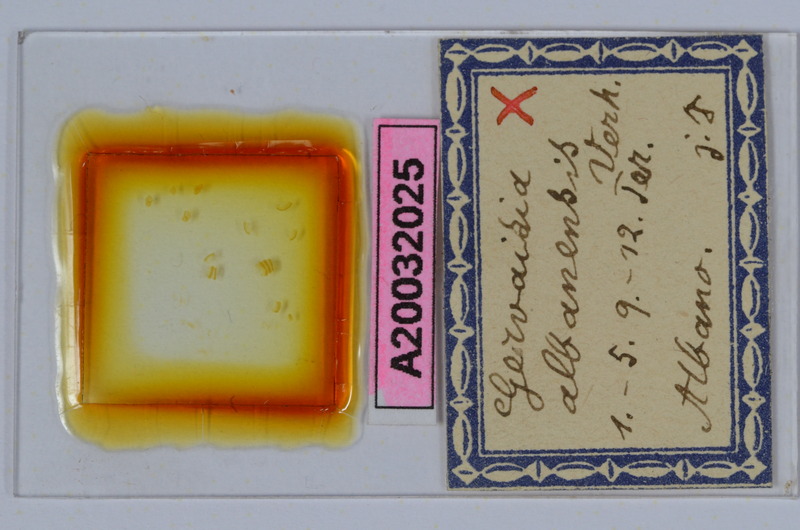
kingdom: Animalia
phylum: Arthropoda
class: Diplopoda
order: Glomerida
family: Glomeridae
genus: Trachysphaera
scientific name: Trachysphaera apenninorum
